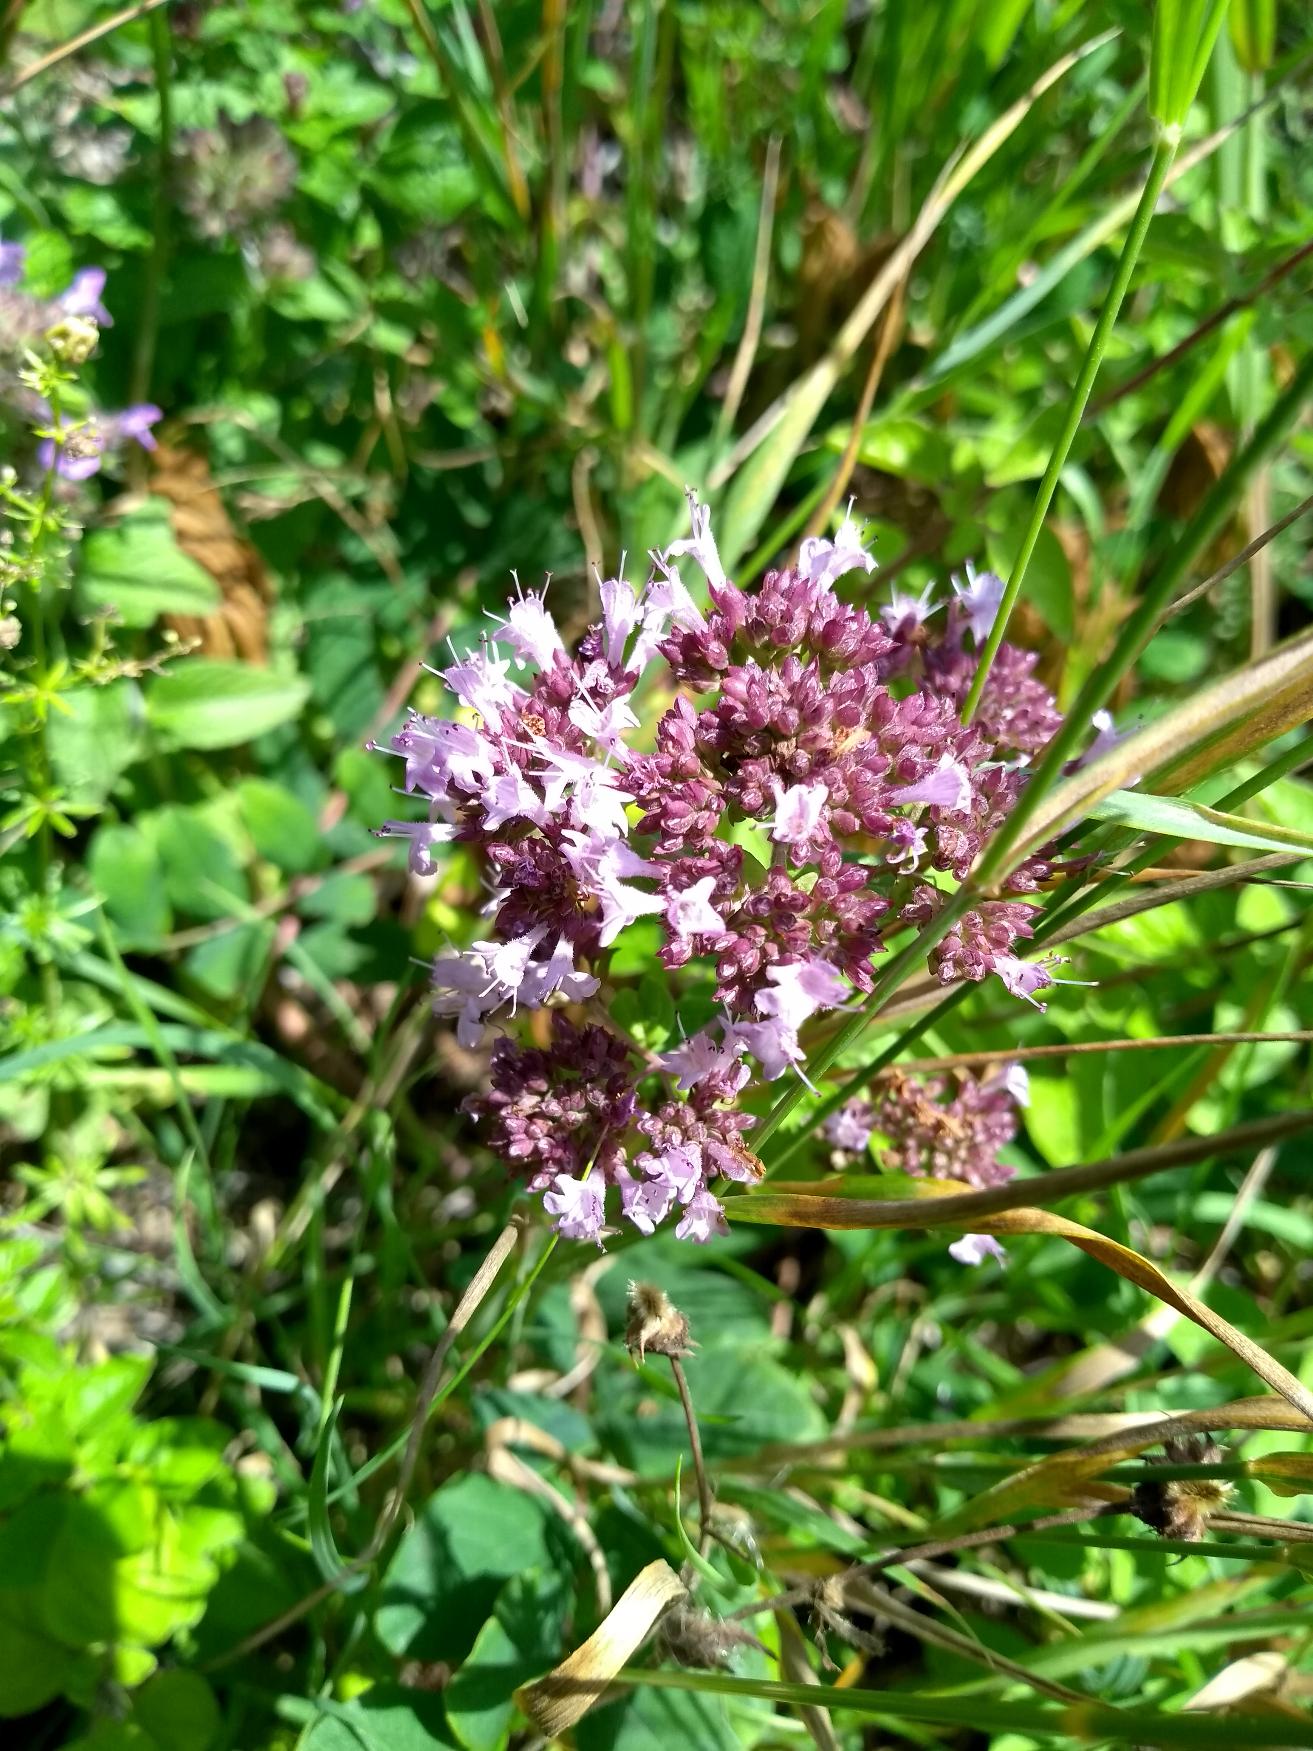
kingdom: Plantae
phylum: Tracheophyta
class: Magnoliopsida
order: Lamiales
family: Lamiaceae
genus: Origanum
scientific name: Origanum vulgare
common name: Merian
